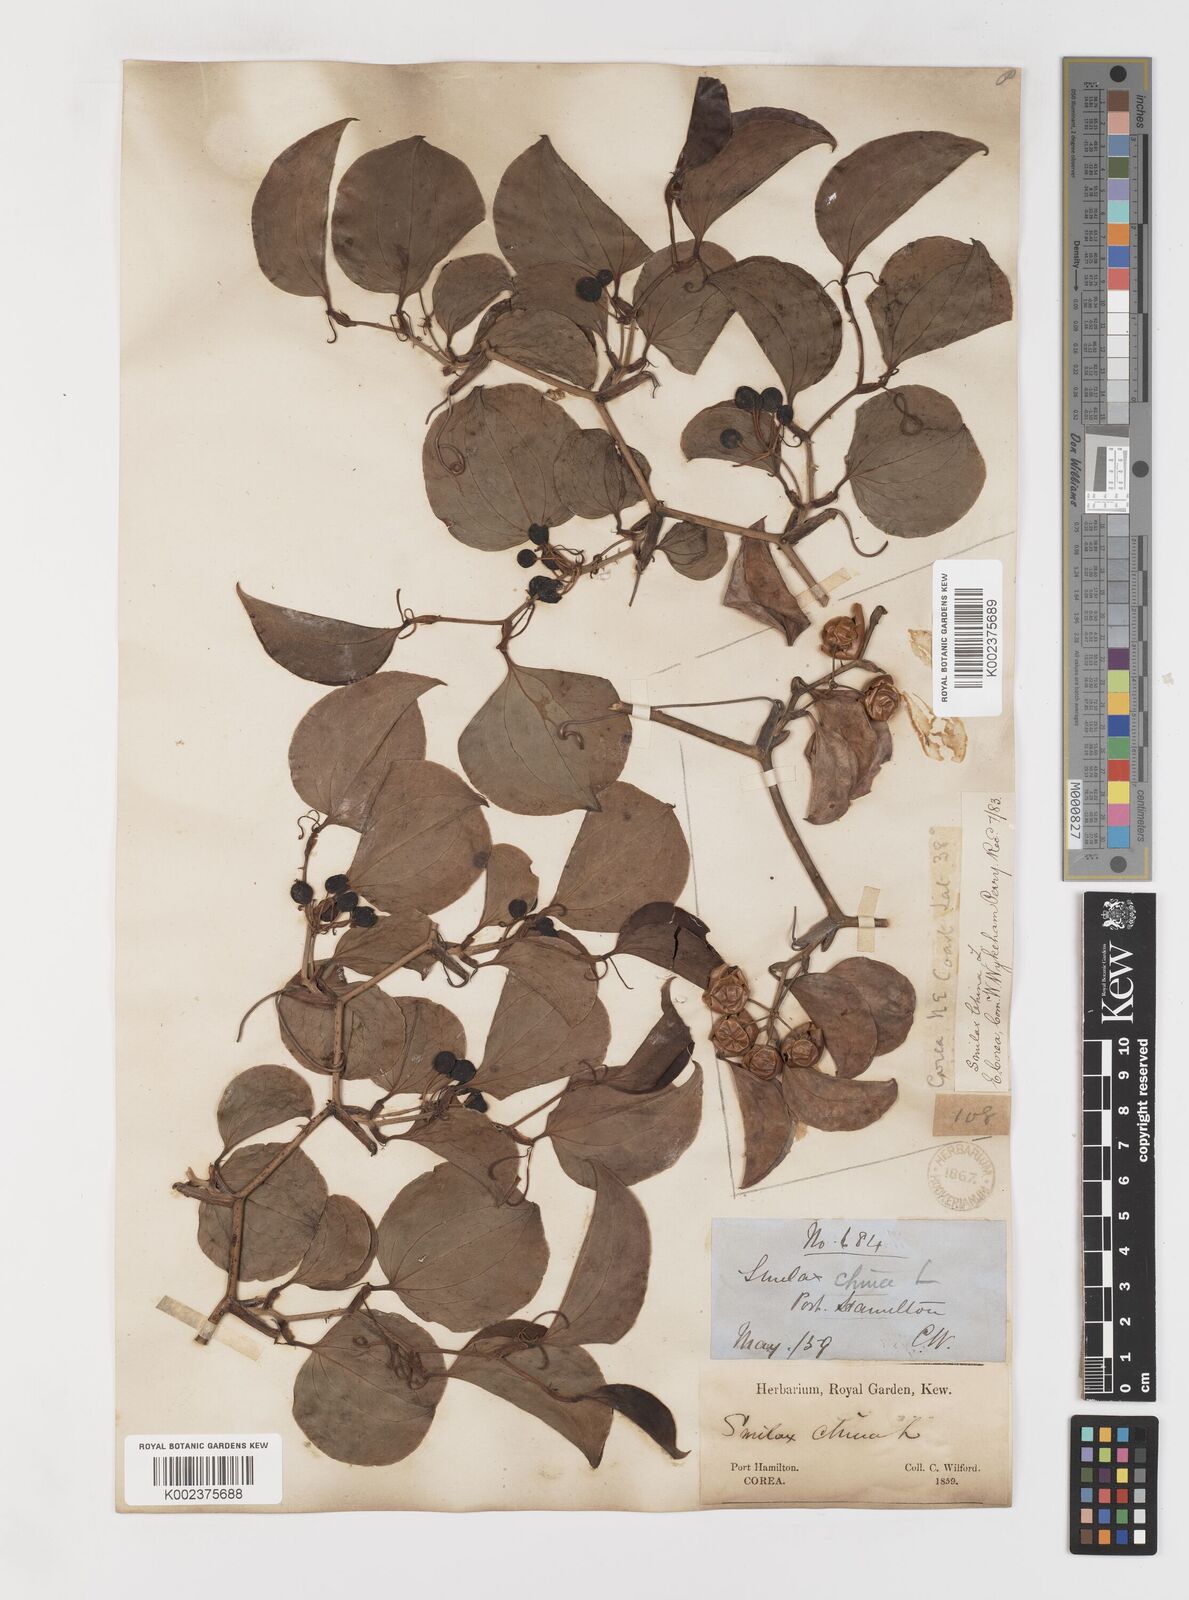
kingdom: Plantae
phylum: Tracheophyta
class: Liliopsida
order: Liliales
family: Smilacaceae
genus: Smilax
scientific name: Smilax china
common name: Chinaroot
